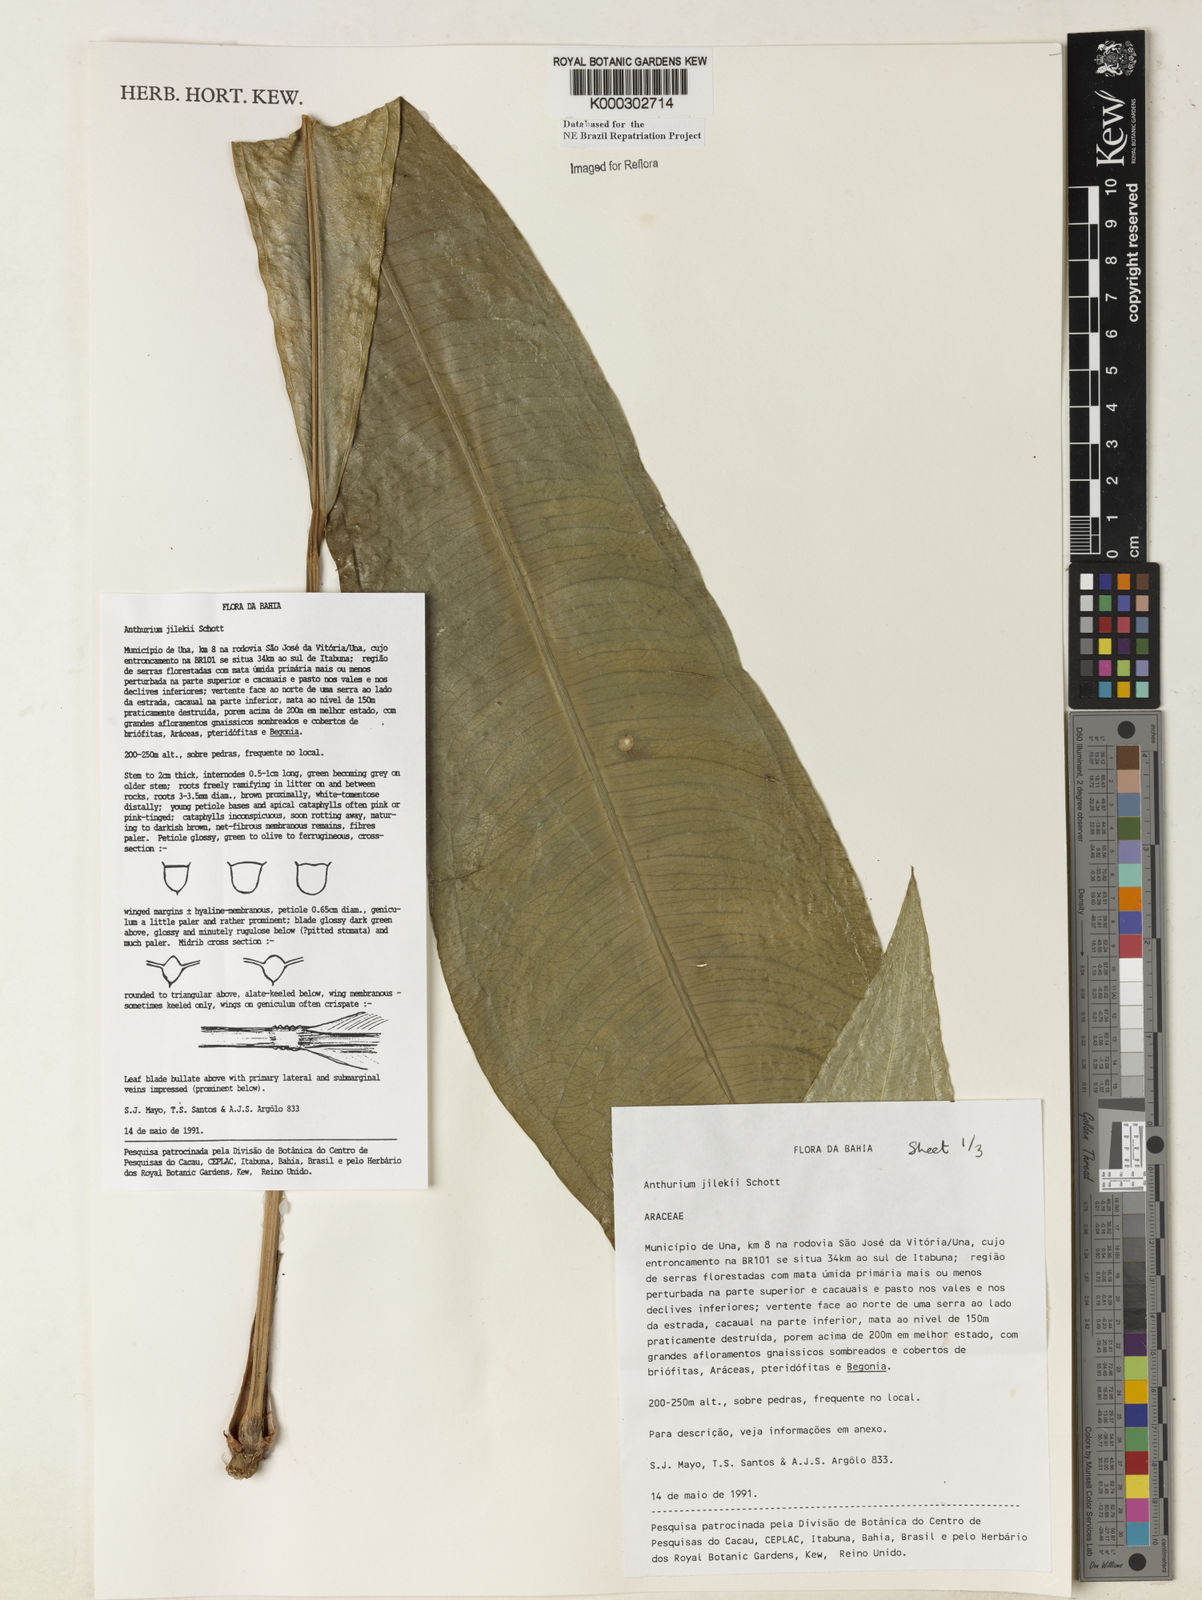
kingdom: Plantae
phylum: Tracheophyta
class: Liliopsida
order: Alismatales
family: Araceae
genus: Anthurium
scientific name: Anthurium jilekii
